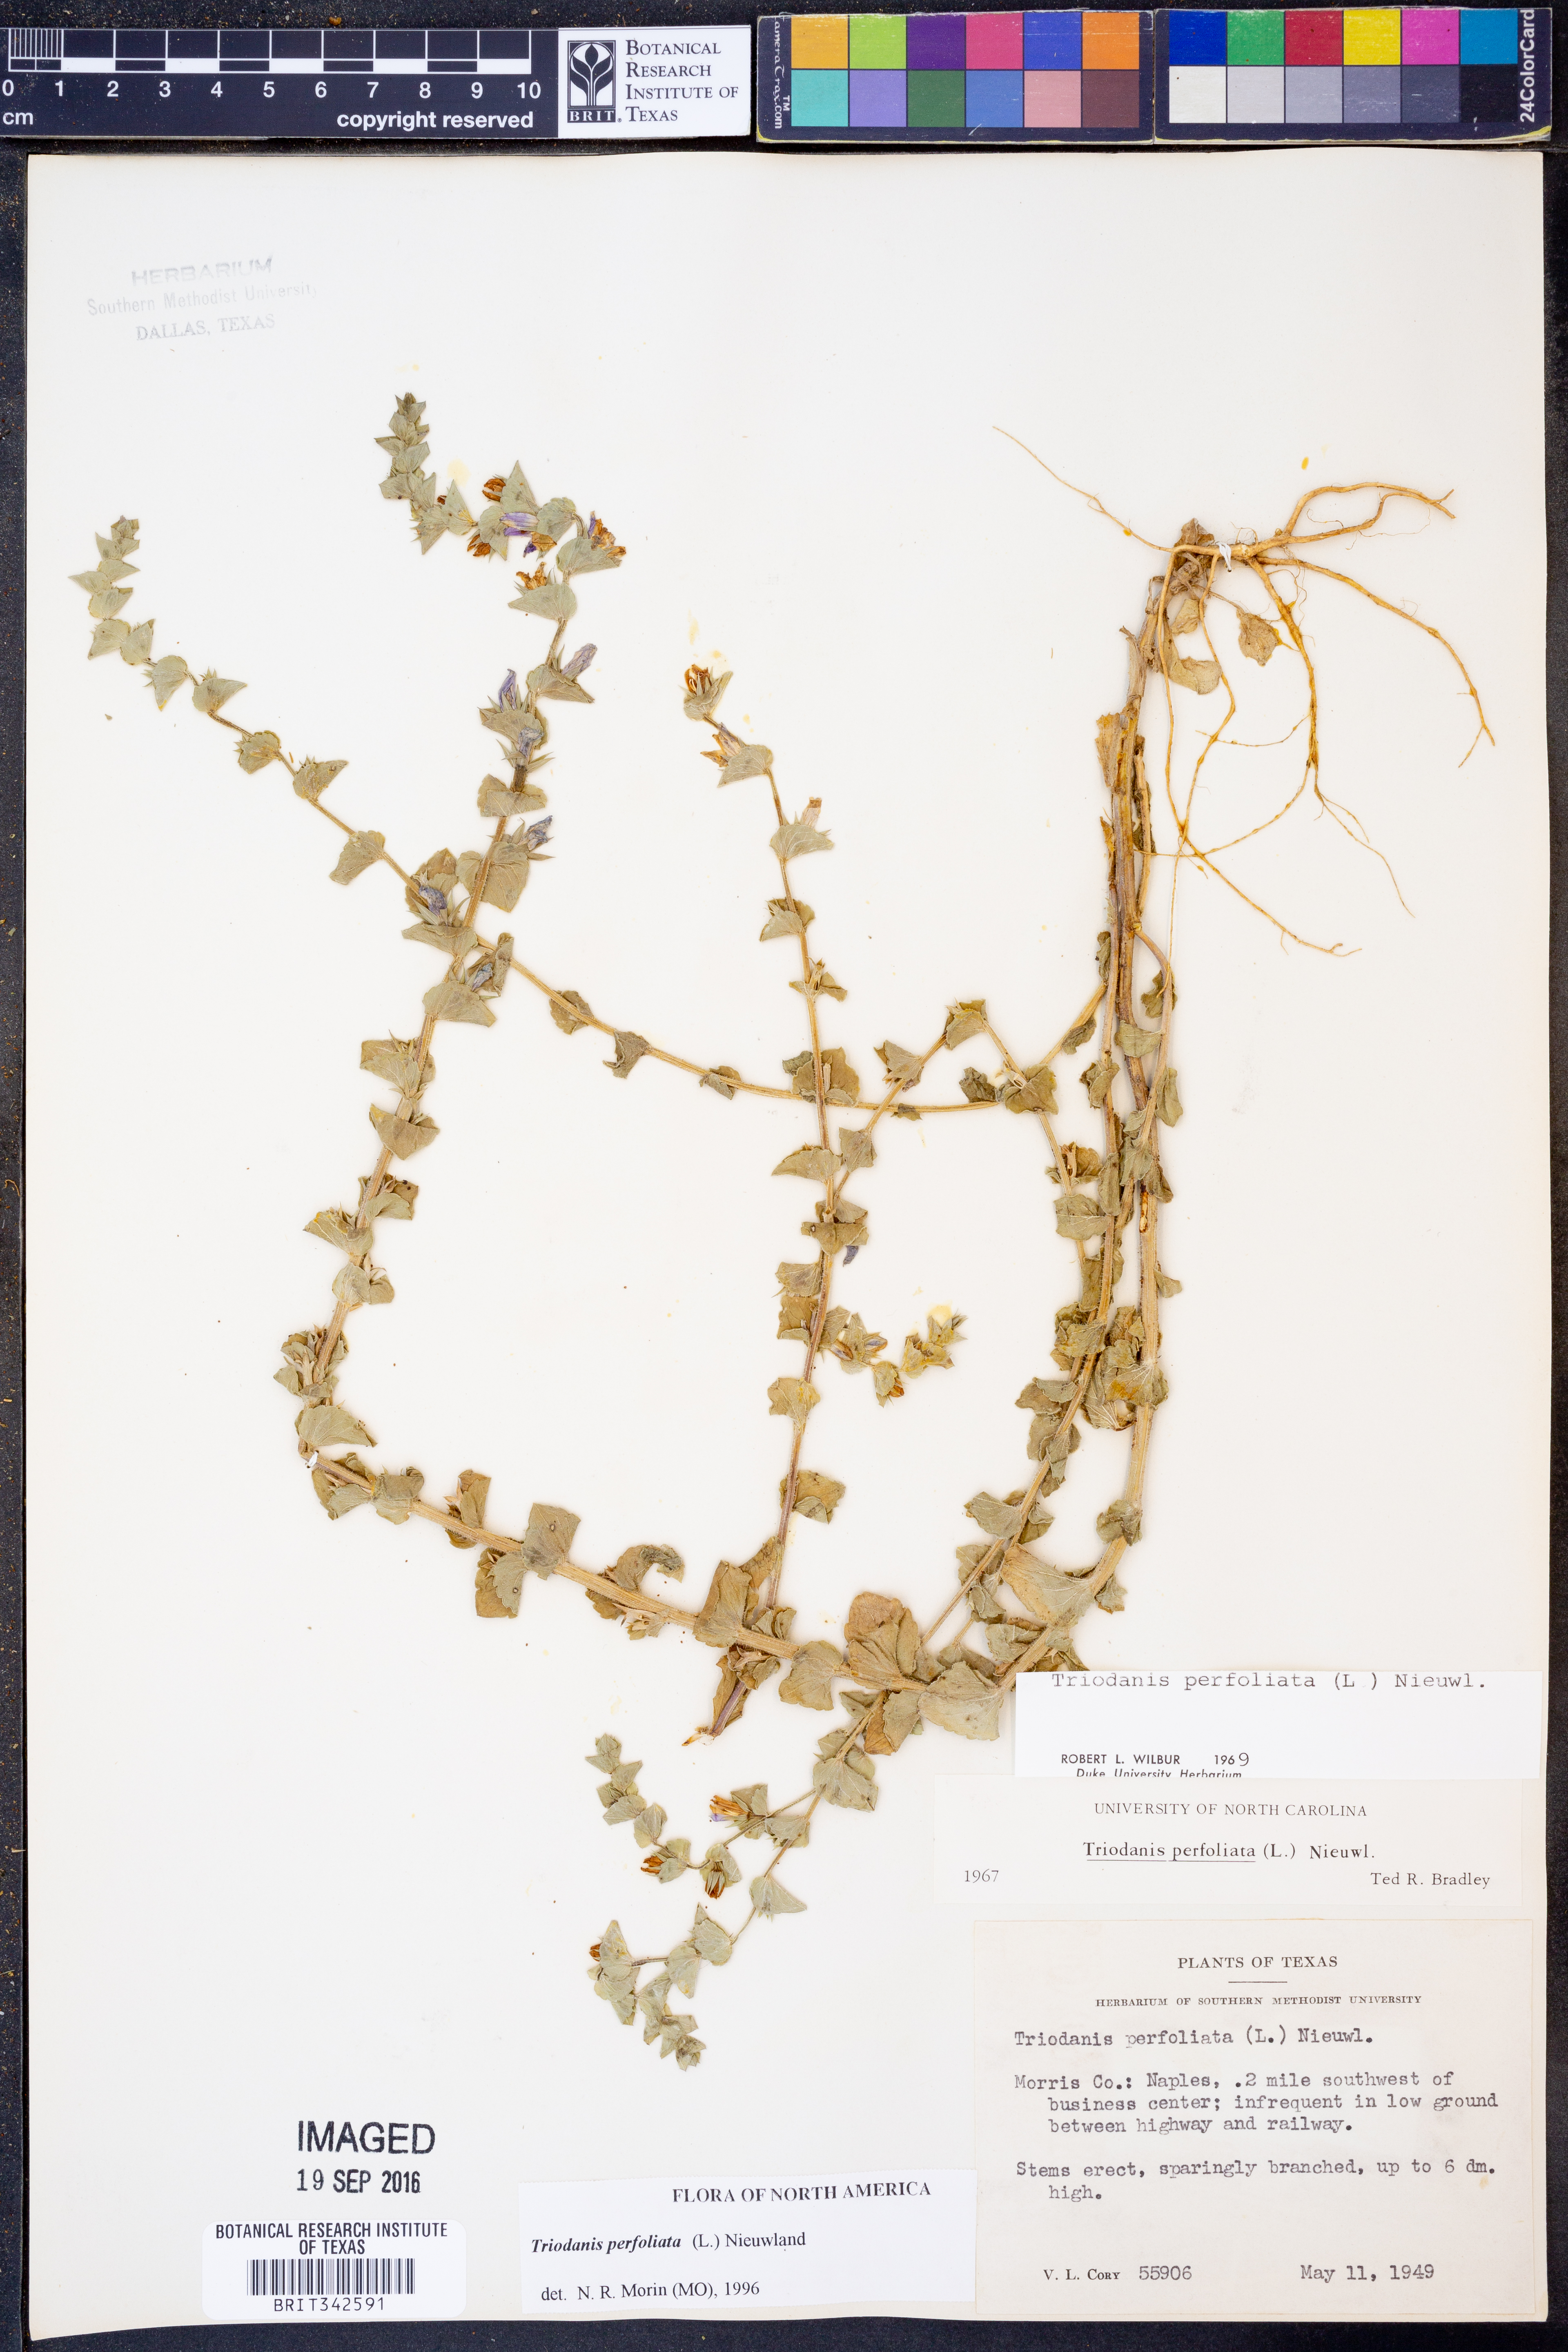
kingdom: Plantae
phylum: Tracheophyta
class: Magnoliopsida
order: Asterales
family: Campanulaceae
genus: Triodanis
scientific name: Triodanis perfoliata
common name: Clasping venus' looking-glass
